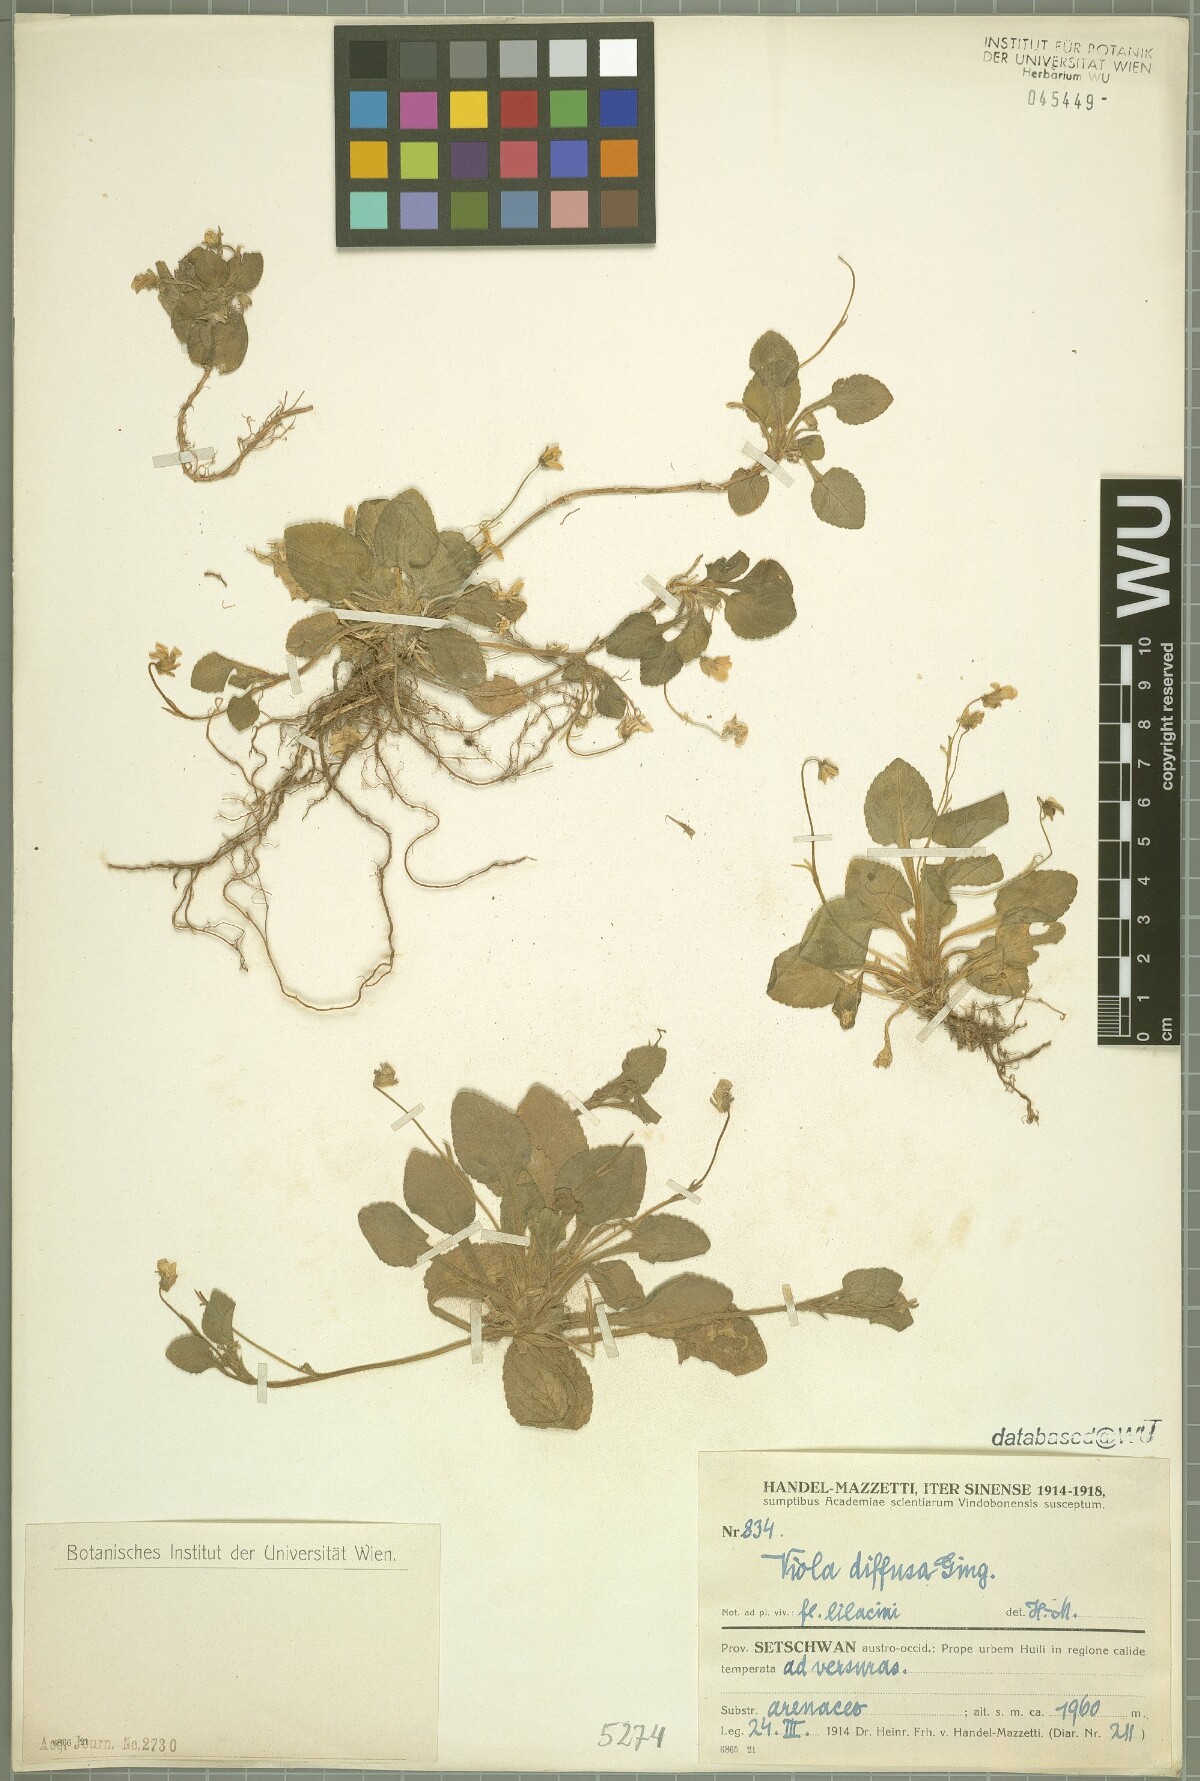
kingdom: Plantae
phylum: Tracheophyta
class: Magnoliopsida
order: Malpighiales
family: Violaceae
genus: Viola
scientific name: Viola diffusa
